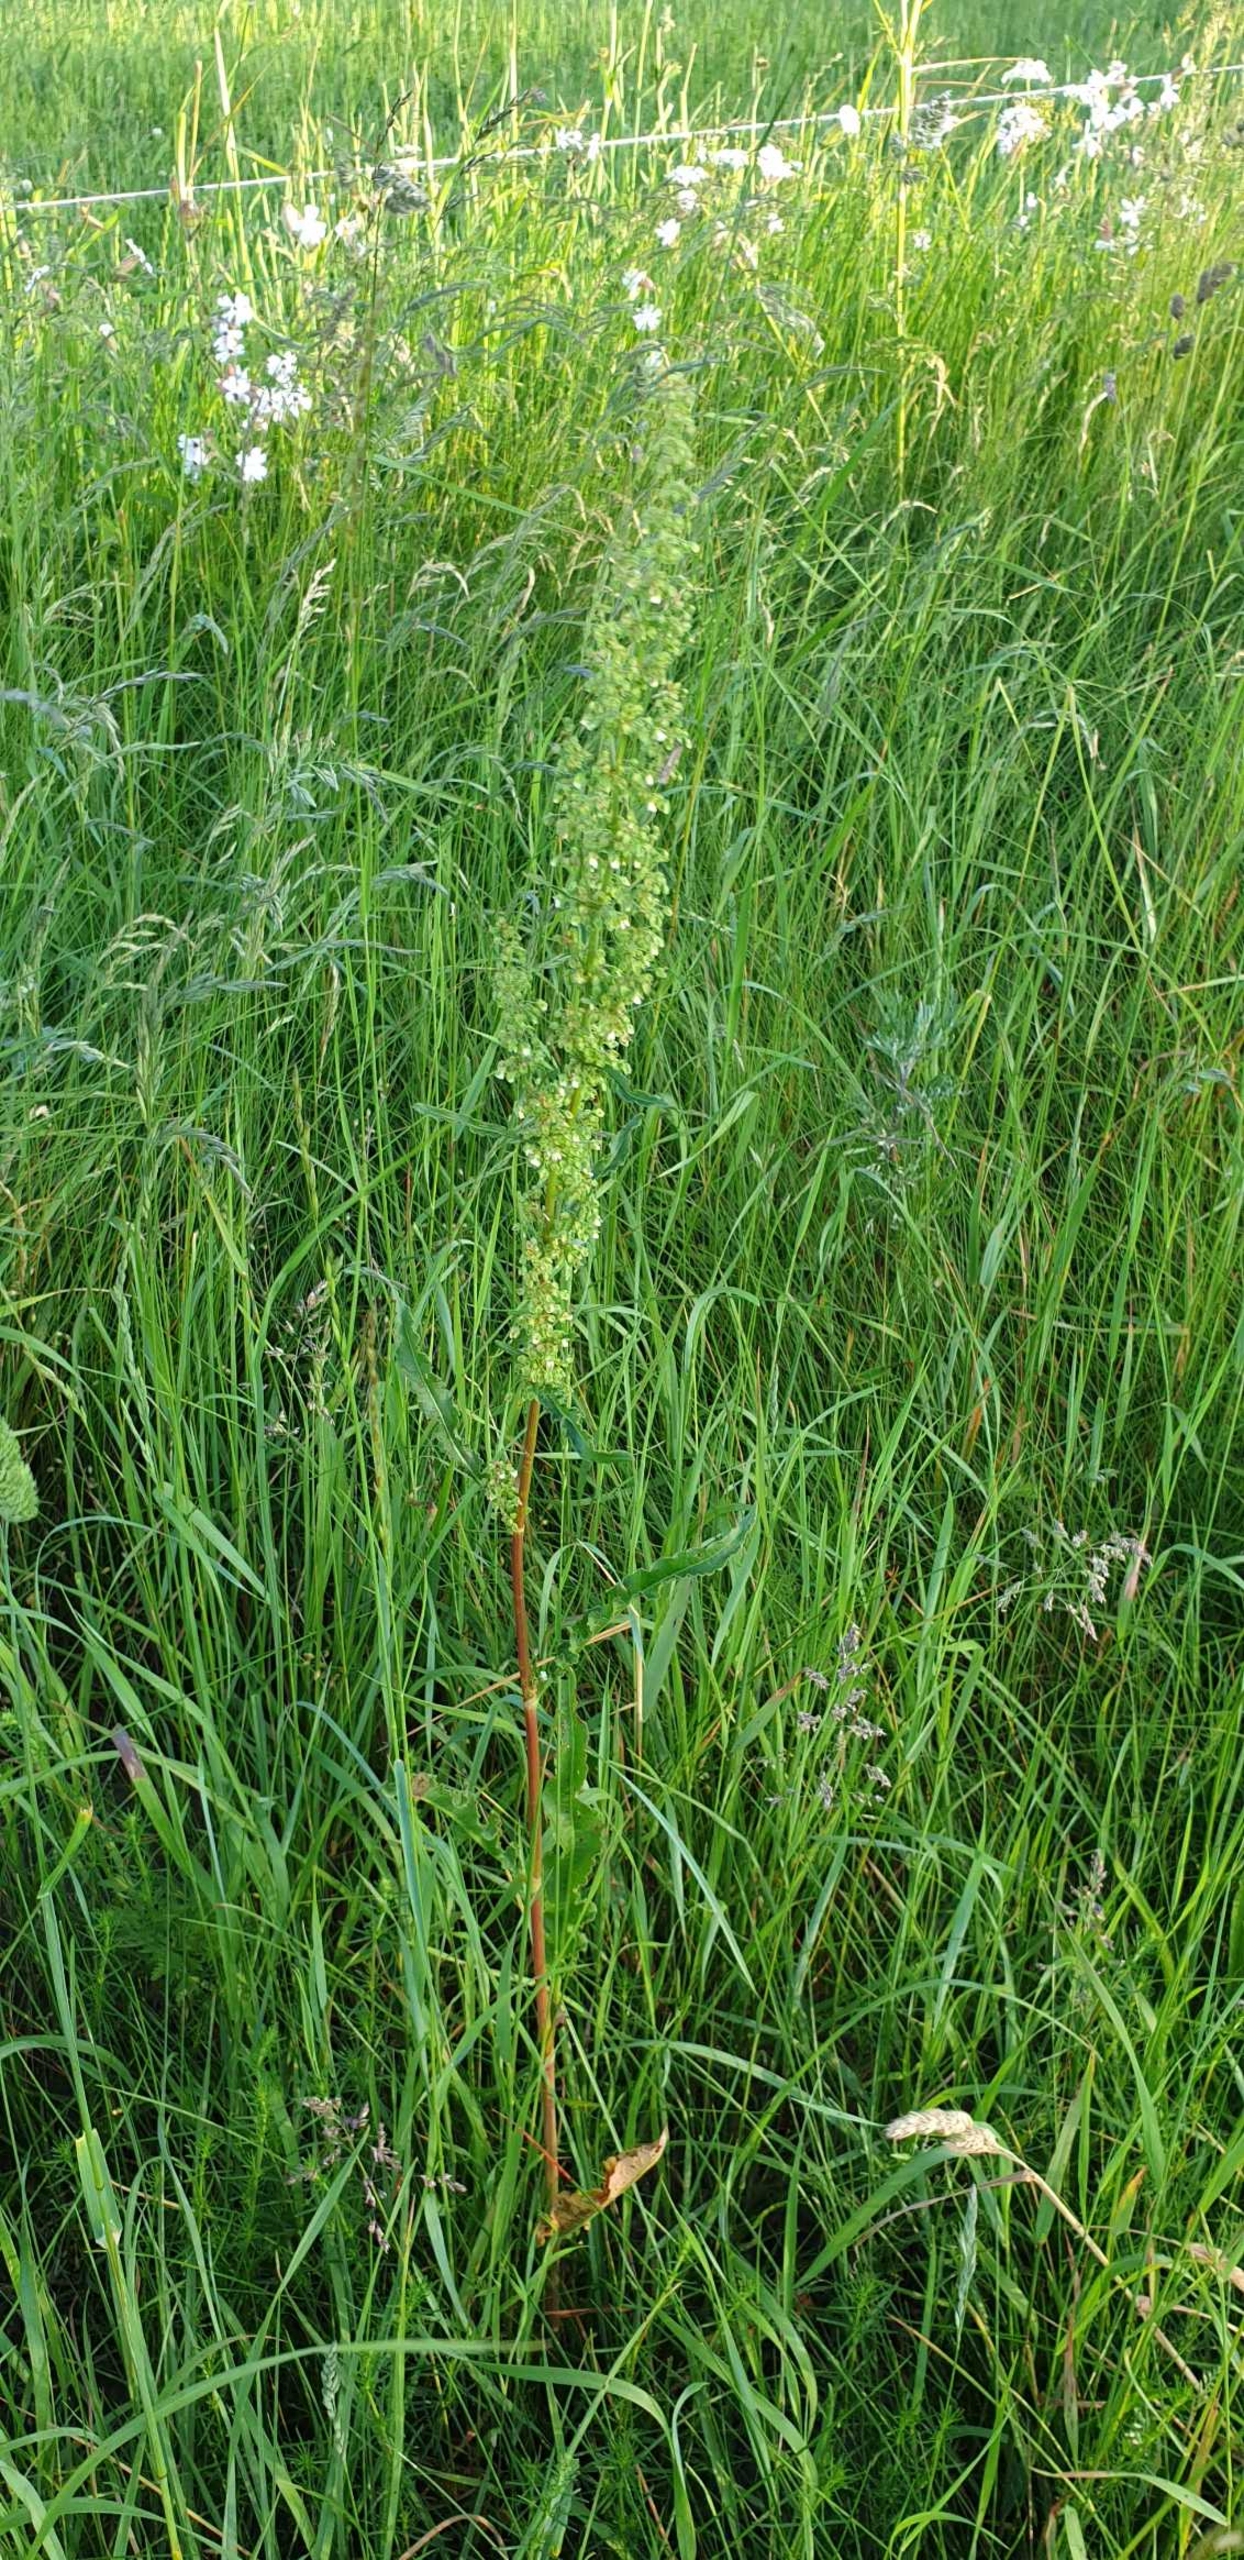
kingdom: Plantae
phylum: Tracheophyta
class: Magnoliopsida
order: Caryophyllales
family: Polygonaceae
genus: Rumex
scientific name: Rumex crispus
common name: Kruset skræppe
